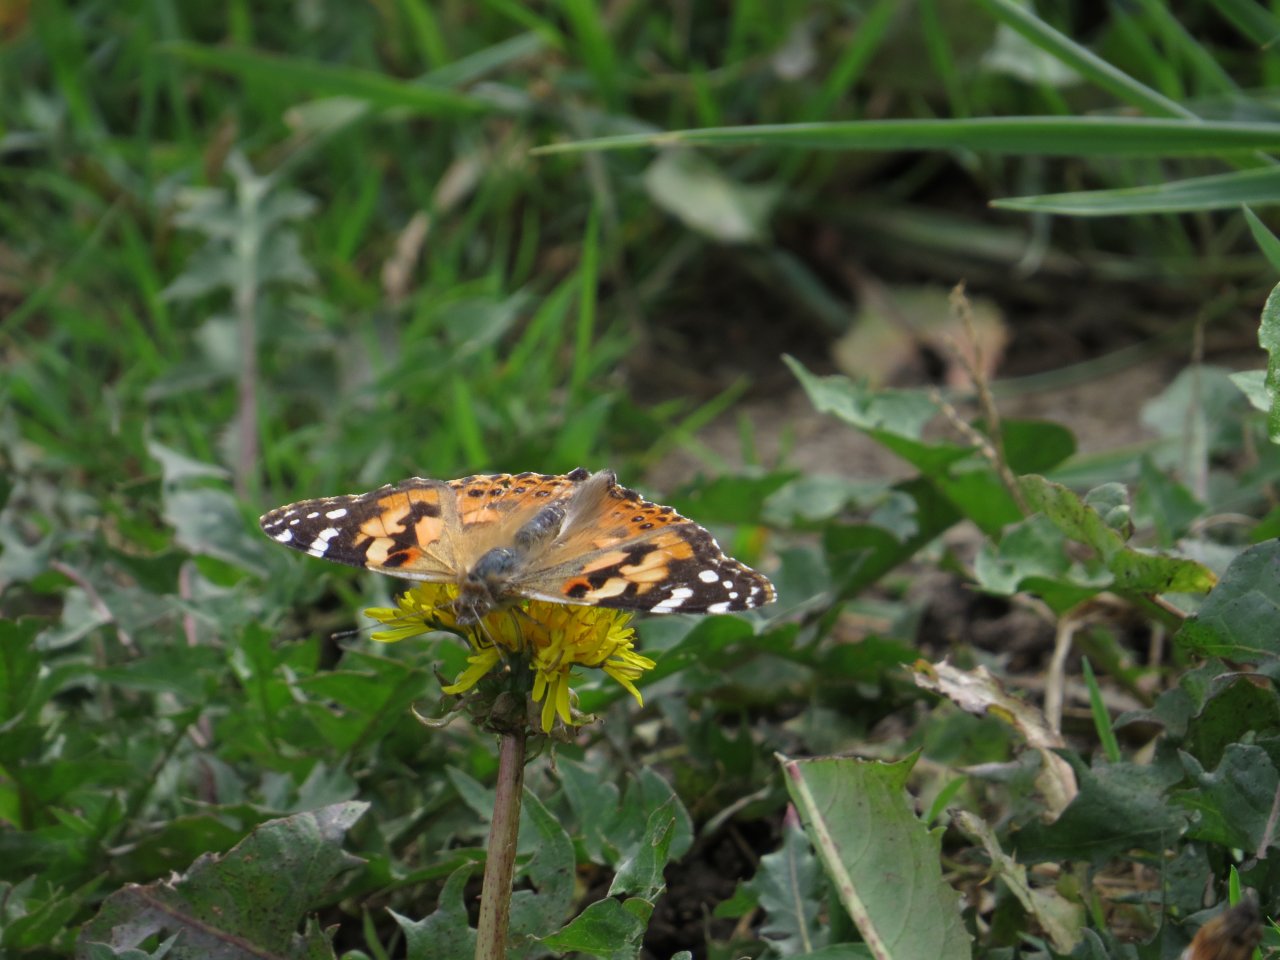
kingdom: Animalia
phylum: Arthropoda
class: Insecta
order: Lepidoptera
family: Nymphalidae
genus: Vanessa
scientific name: Vanessa cardui
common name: Painted Lady
